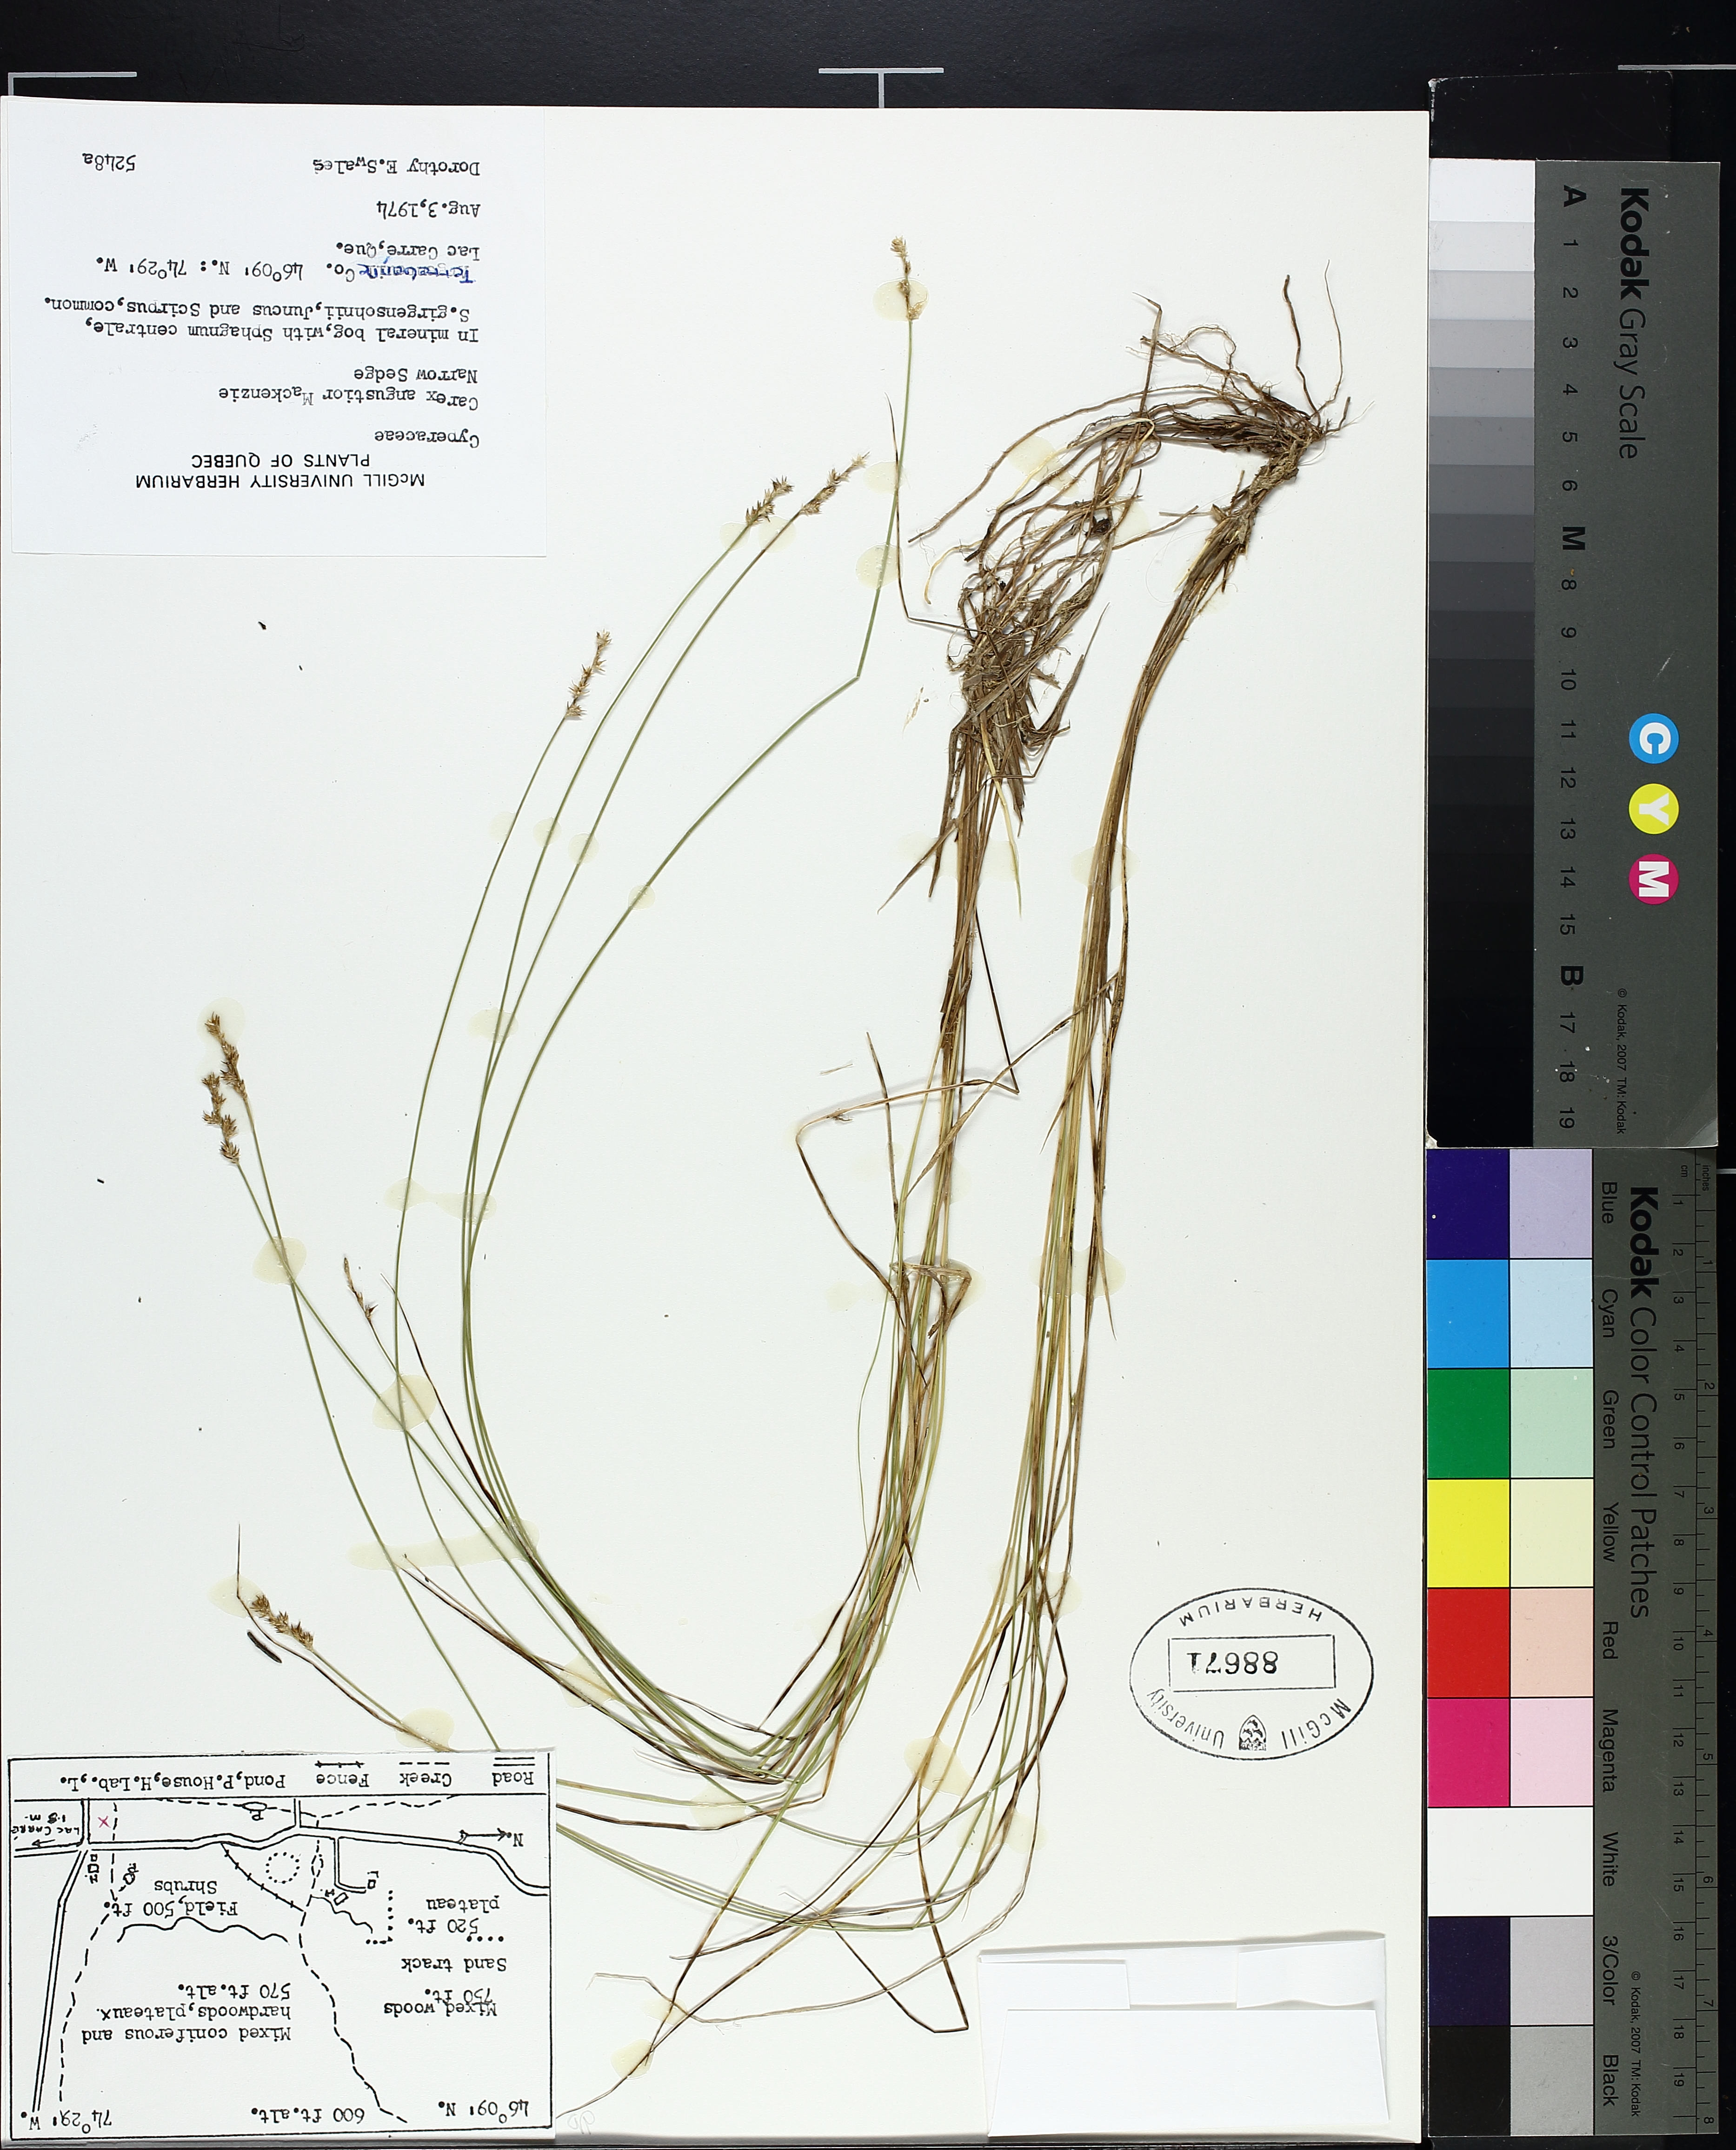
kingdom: Plantae
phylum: Tracheophyta
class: Liliopsida
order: Poales
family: Cyperaceae
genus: Carex
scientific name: Carex echinata
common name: Star sedge
